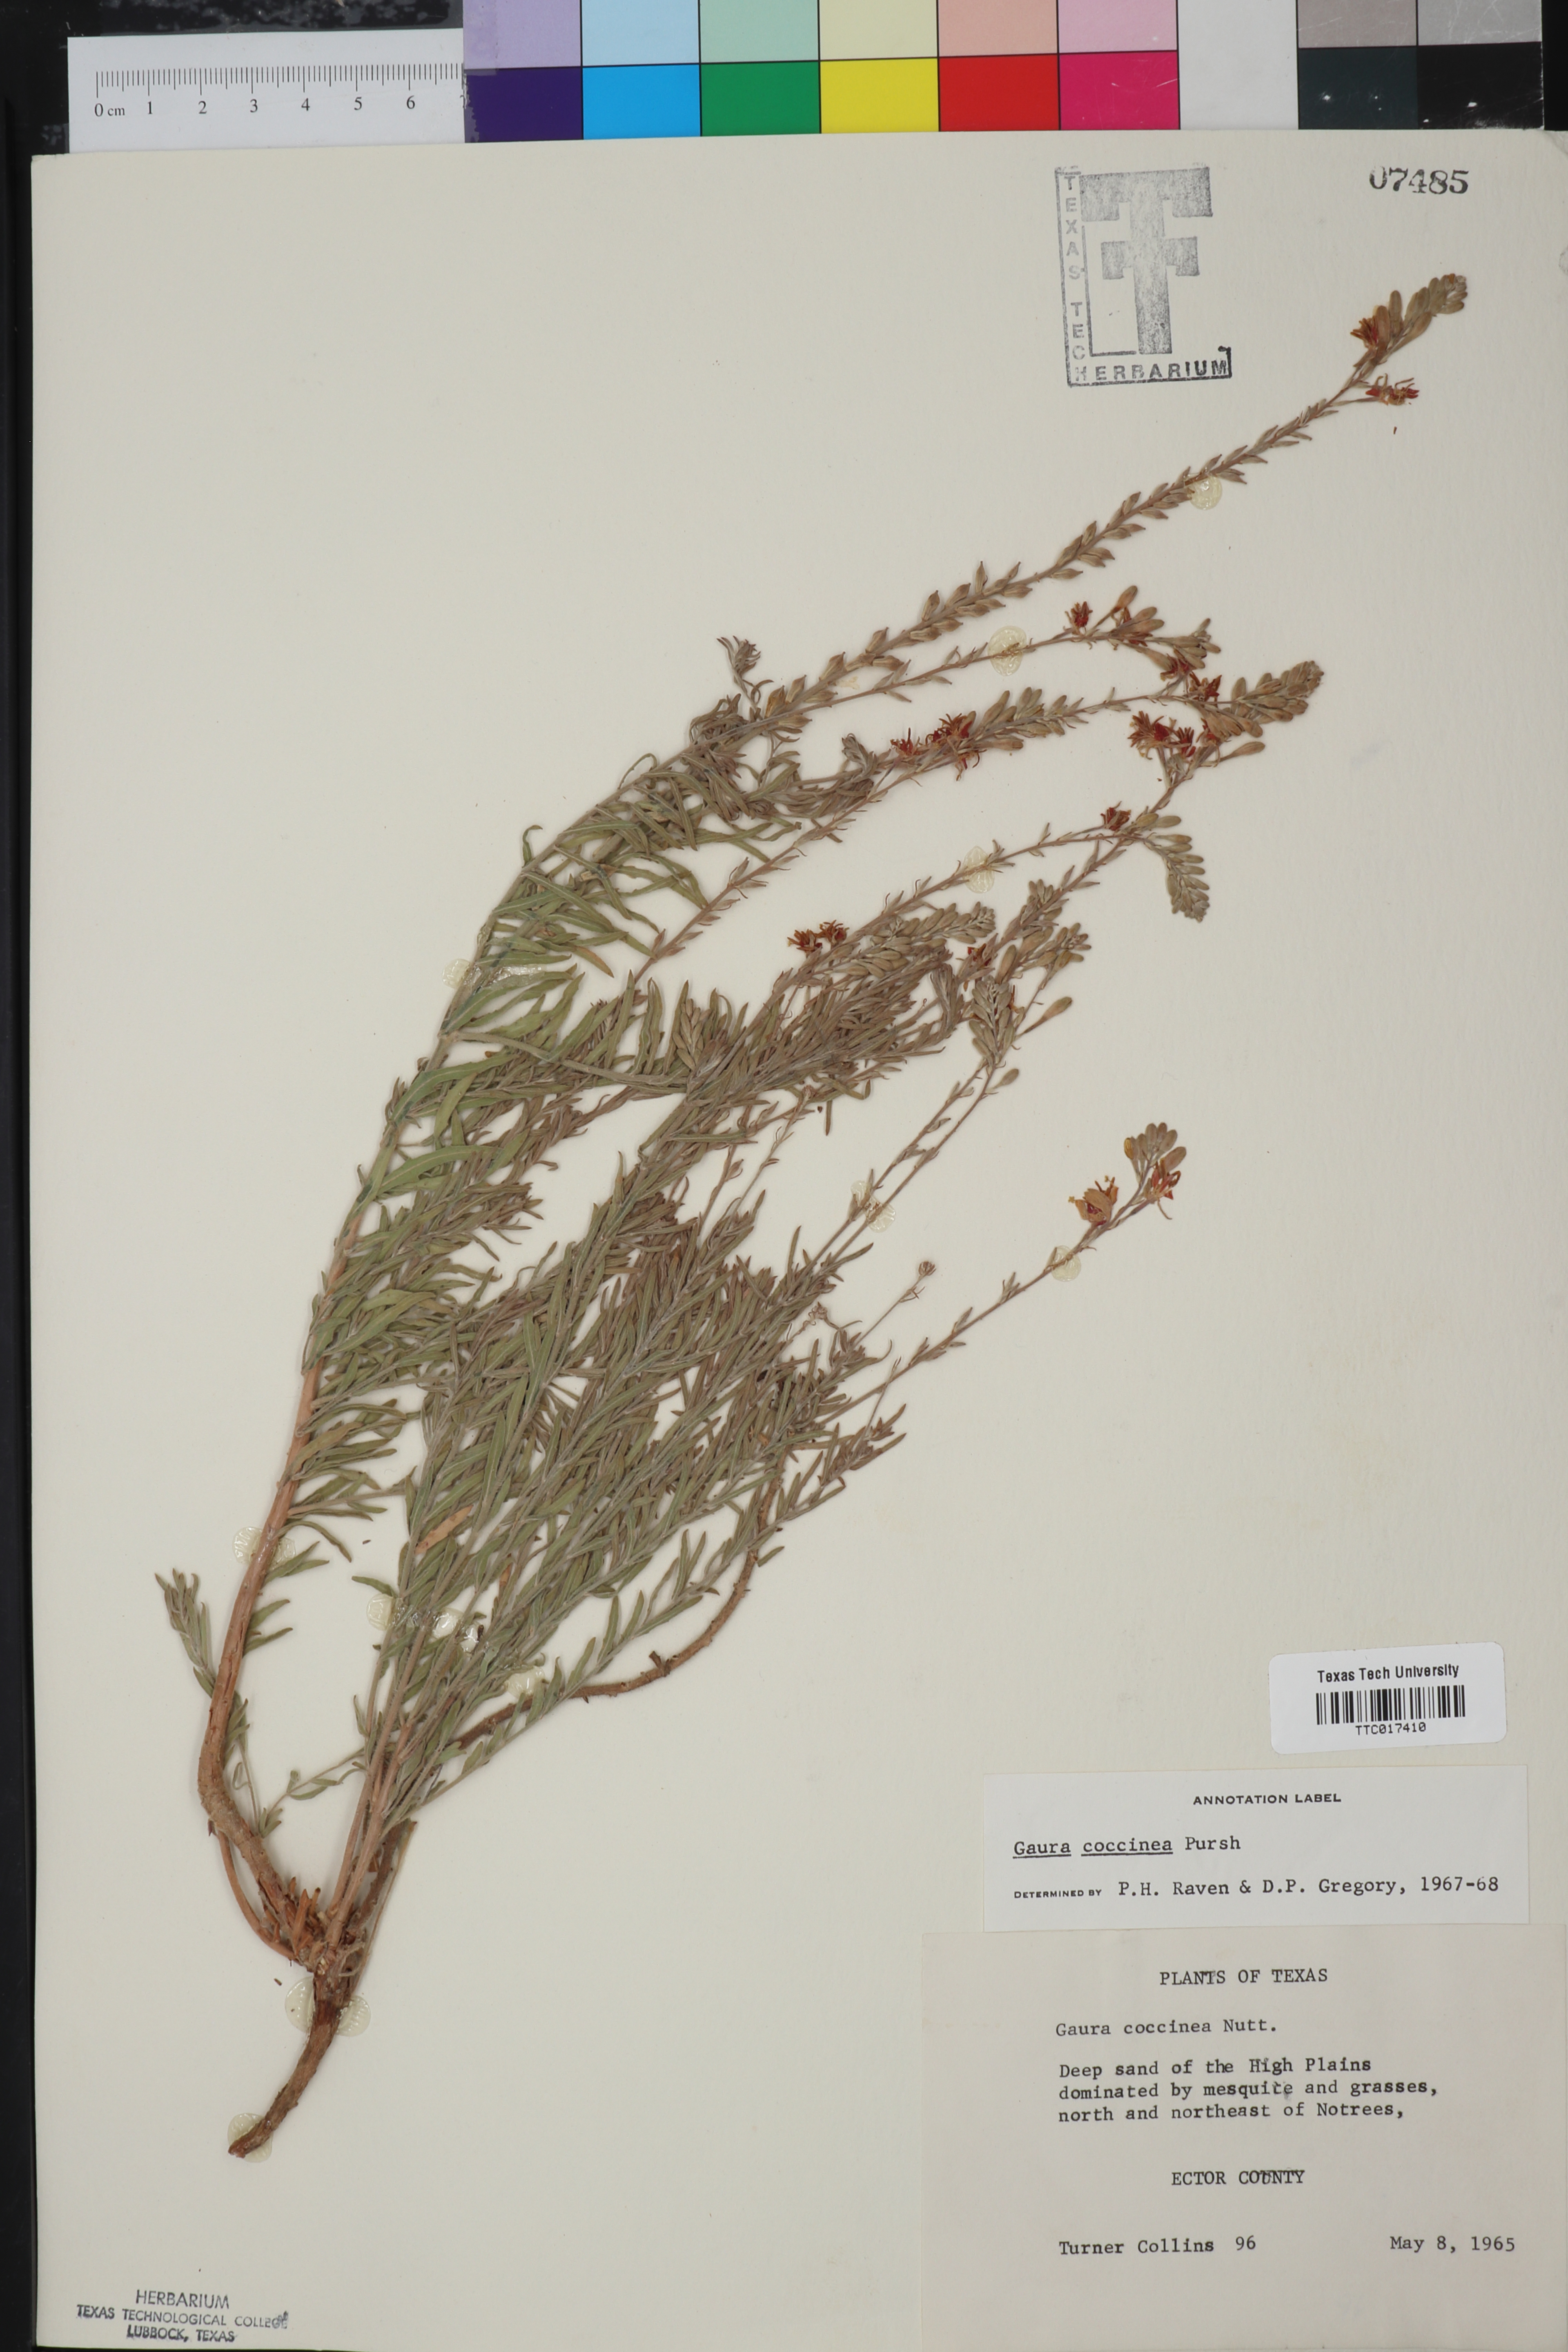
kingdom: Plantae
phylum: Tracheophyta
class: Magnoliopsida
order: Myrtales
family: Onagraceae
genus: Oenothera
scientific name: Oenothera suffrutescens
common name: Scarlet beeblossom
